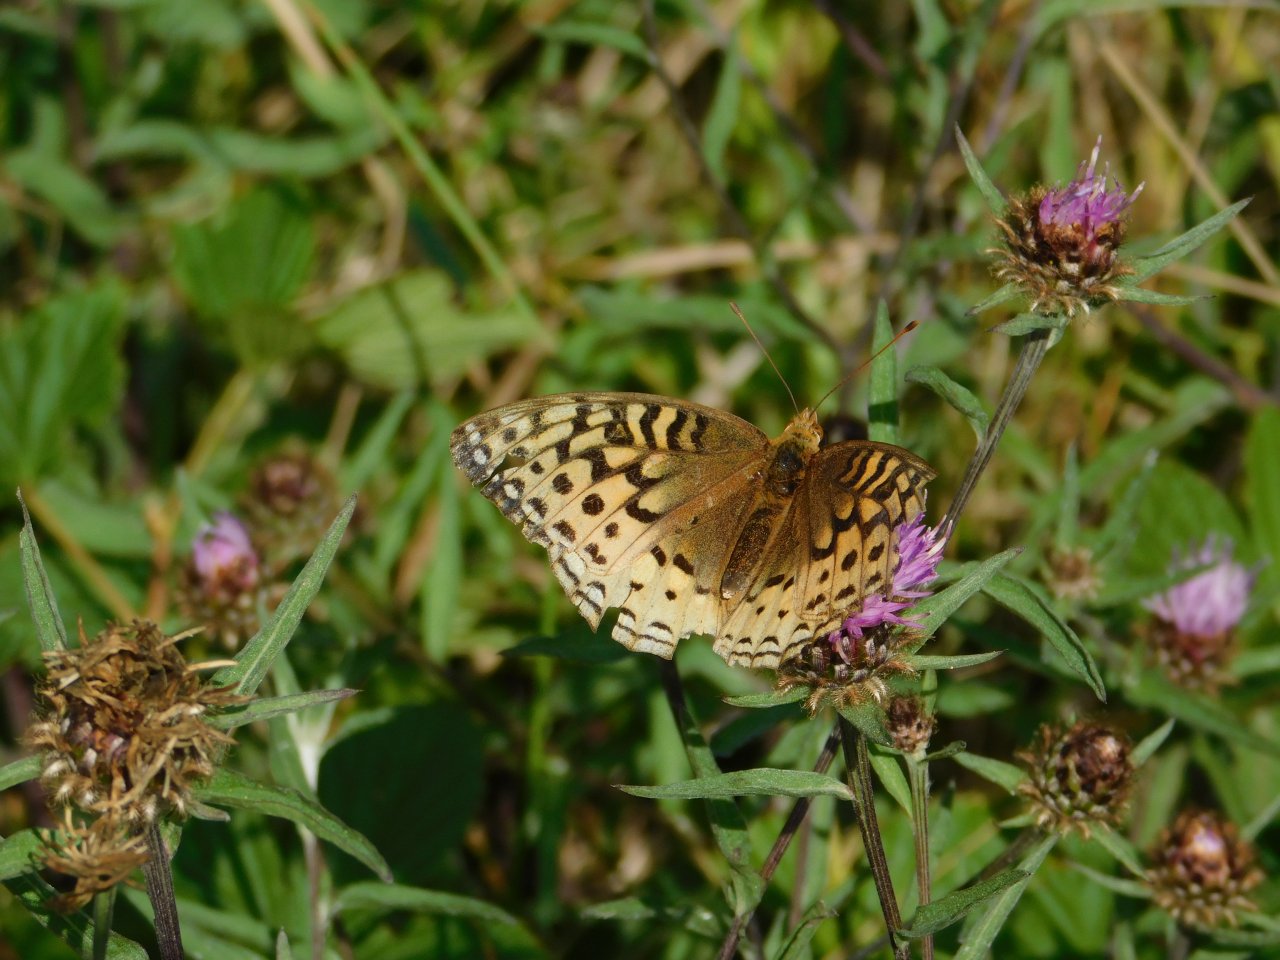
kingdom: Animalia
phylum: Arthropoda
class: Insecta
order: Lepidoptera
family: Nymphalidae
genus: Speyeria
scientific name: Speyeria cybele
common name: Great Spangled Fritillary
